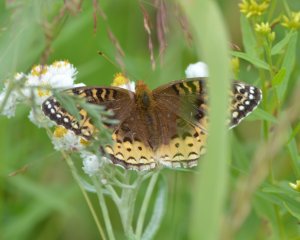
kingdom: Animalia
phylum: Arthropoda
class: Insecta
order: Lepidoptera
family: Nymphalidae
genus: Speyeria
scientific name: Speyeria cybele
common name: Great Spangled Fritillary
